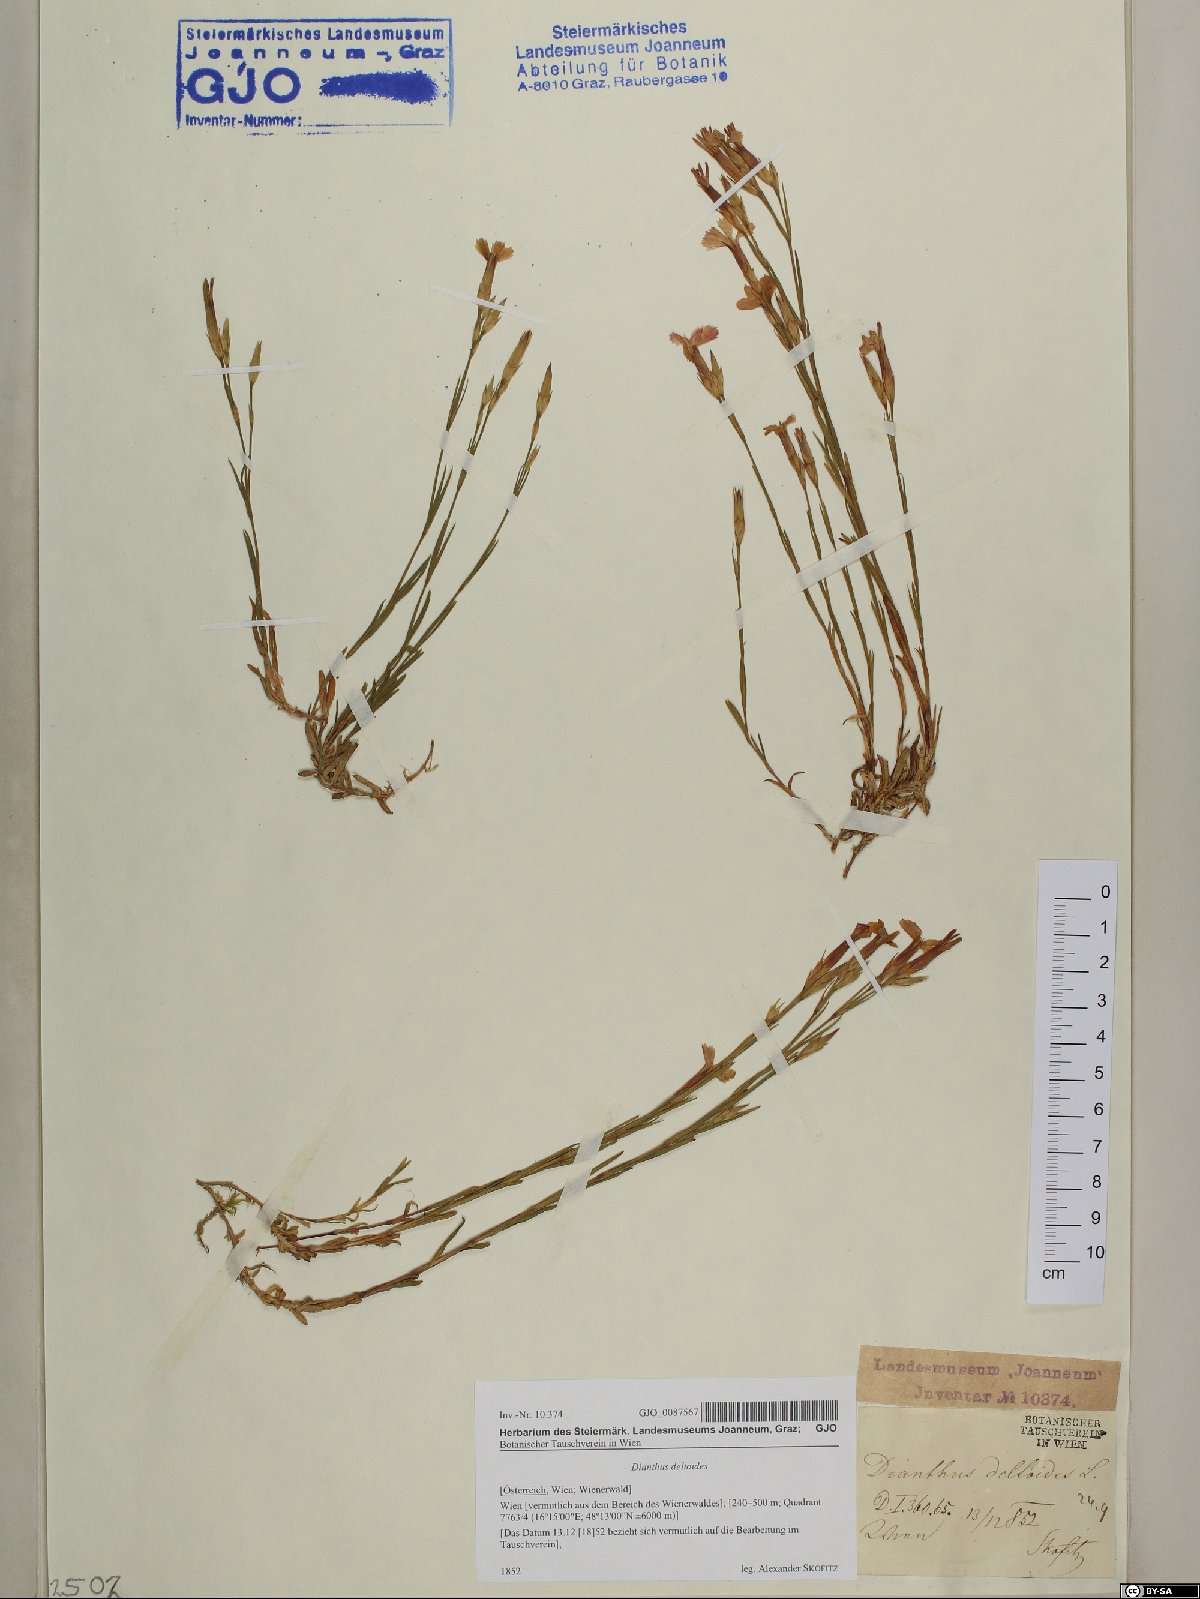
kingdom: Plantae
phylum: Tracheophyta
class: Magnoliopsida
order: Caryophyllales
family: Caryophyllaceae
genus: Dianthus
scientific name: Dianthus deltoides
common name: Maiden pink
